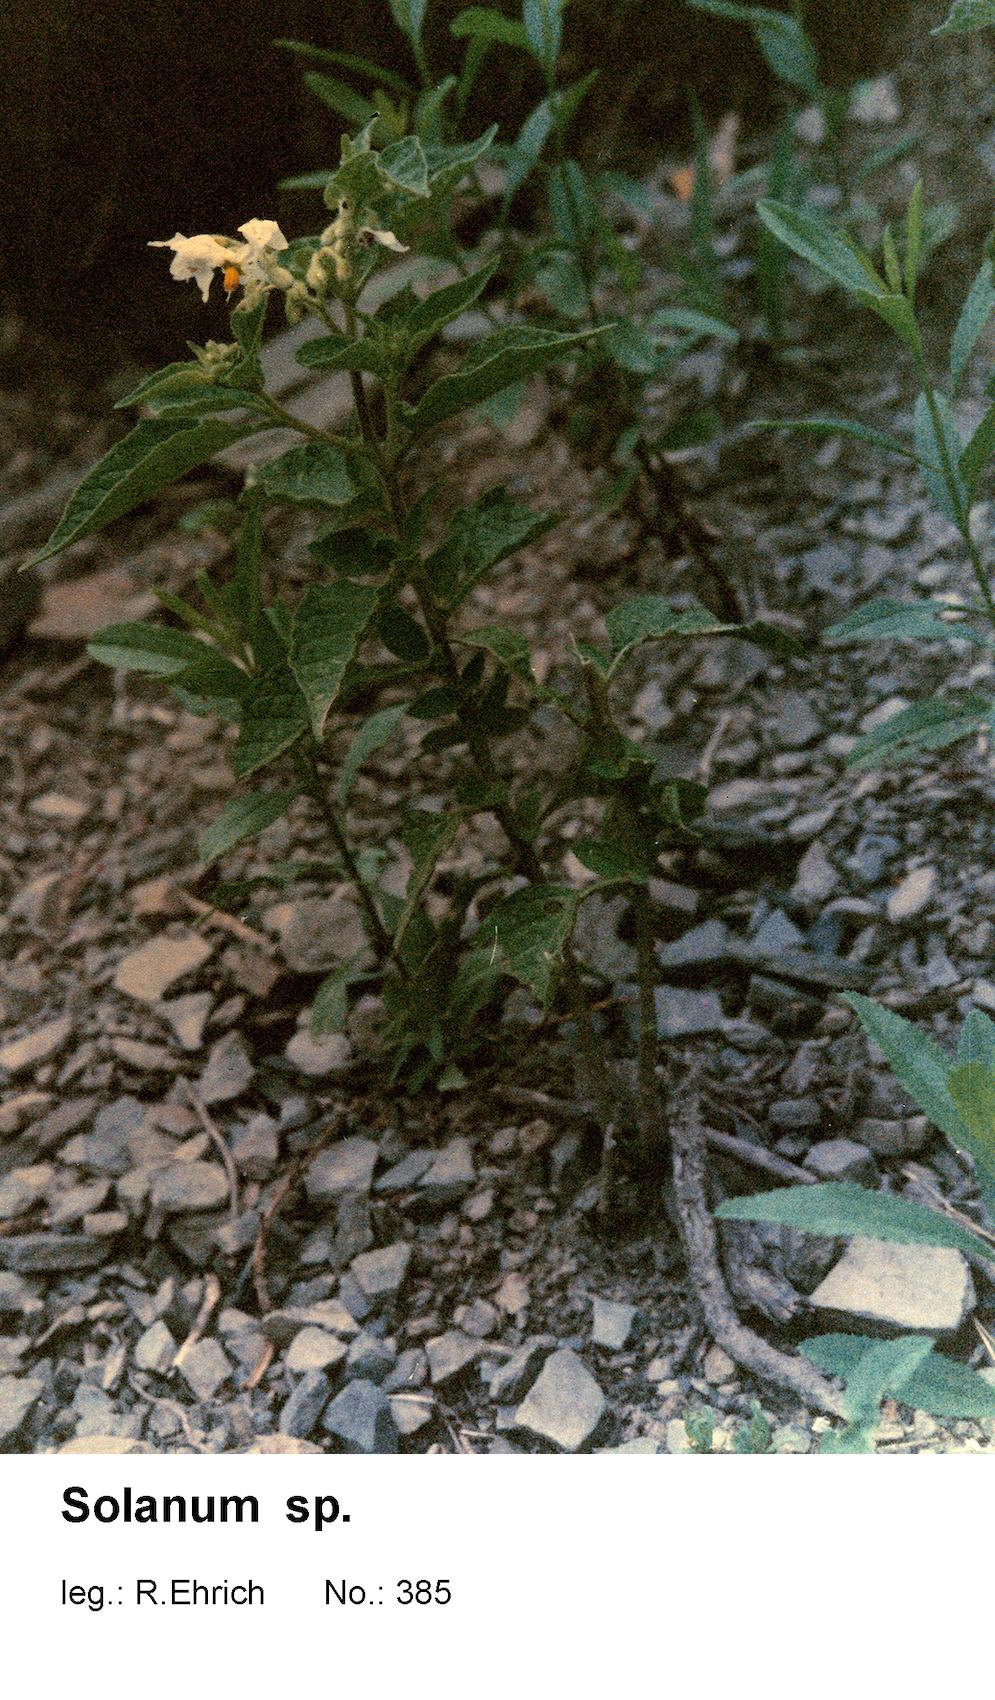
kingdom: Plantae
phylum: Tracheophyta
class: Magnoliopsida
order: Solanales
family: Solanaceae
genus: Solanum
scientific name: Solanum hunzikeri
